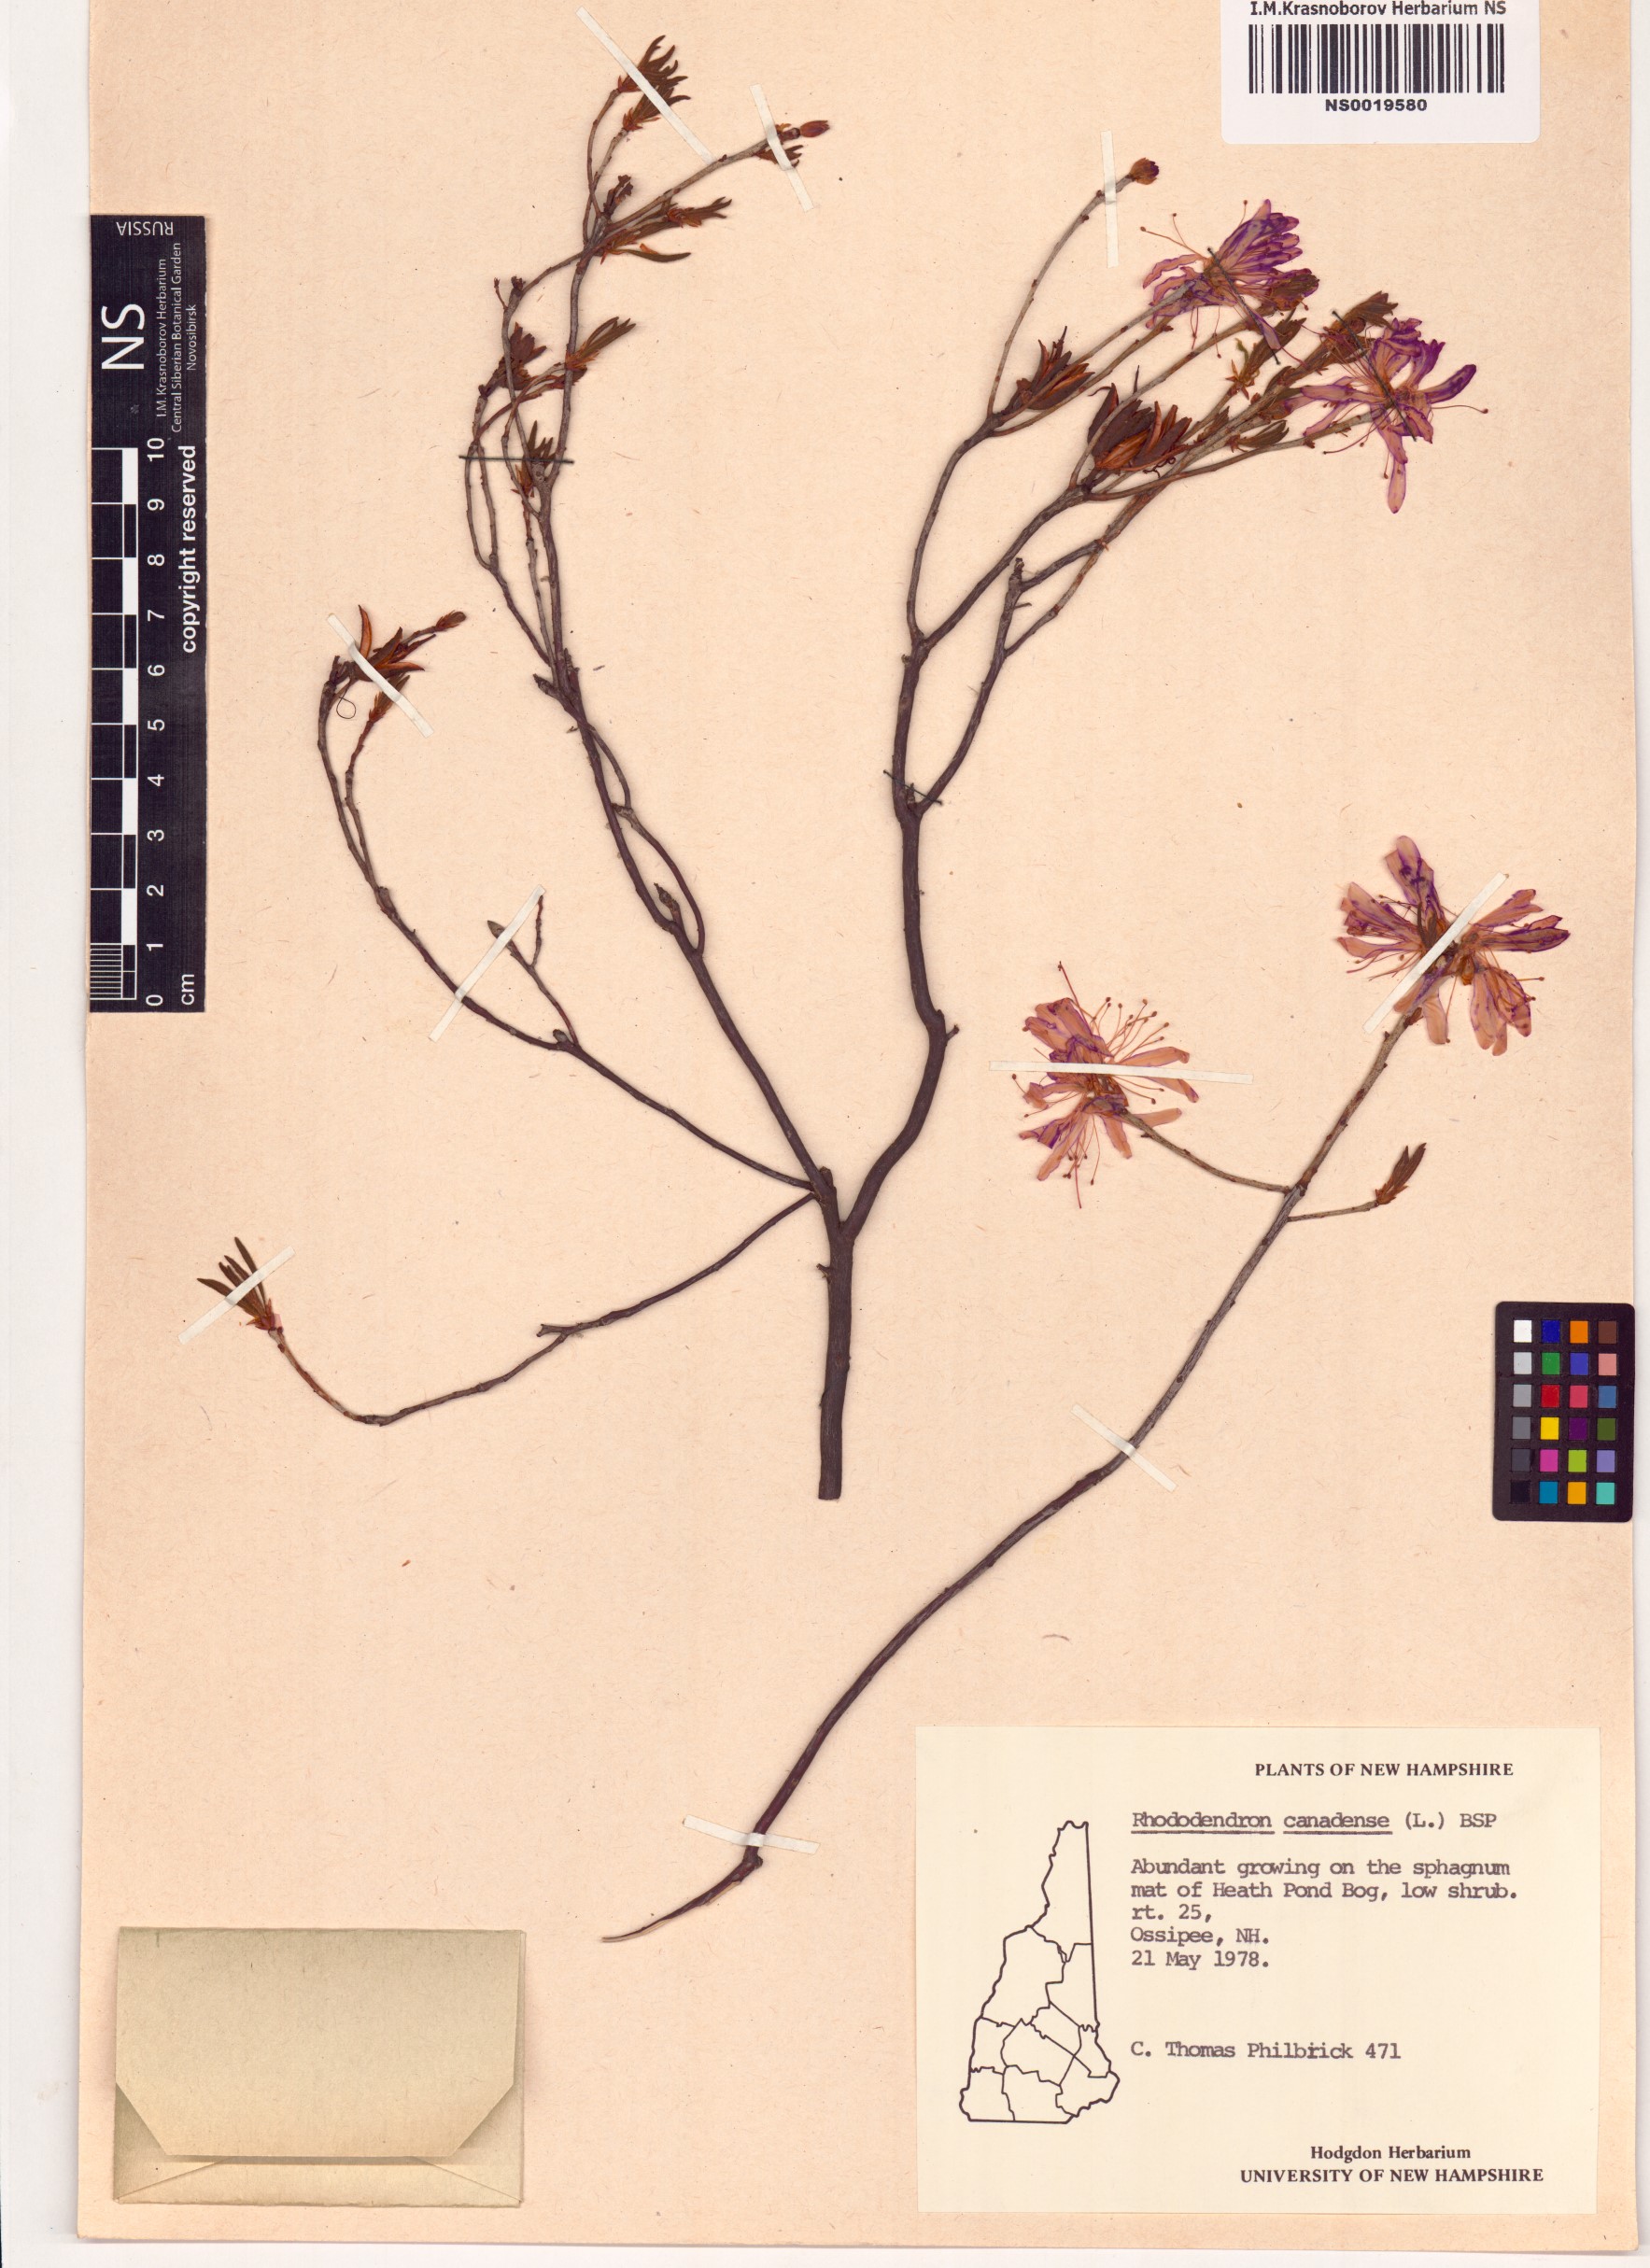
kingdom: Plantae
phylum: Tracheophyta
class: Magnoliopsida
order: Ericales
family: Ericaceae
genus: Rhododendron
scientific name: Rhododendron canadense
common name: Rhodora
